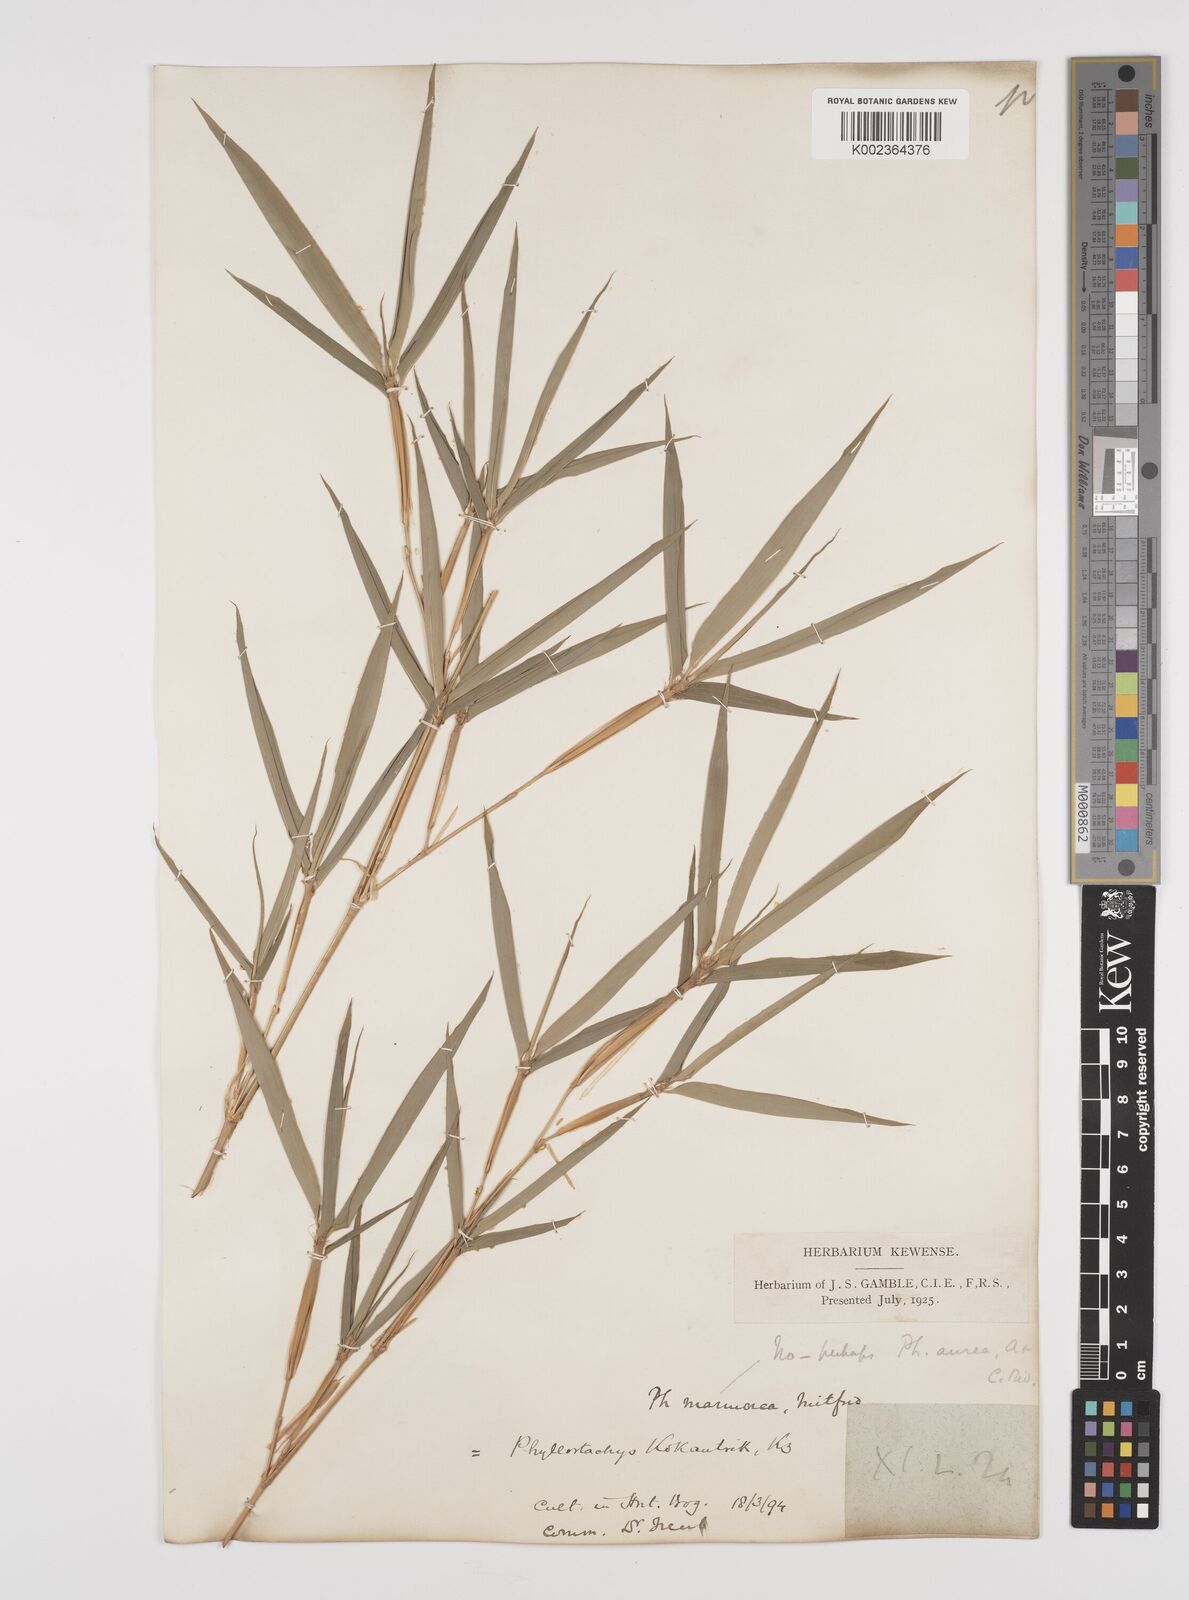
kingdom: Plantae
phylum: Tracheophyta
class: Liliopsida
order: Poales
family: Poaceae
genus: Phyllostachys
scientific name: Phyllostachys aurea
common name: Golden bamboo
